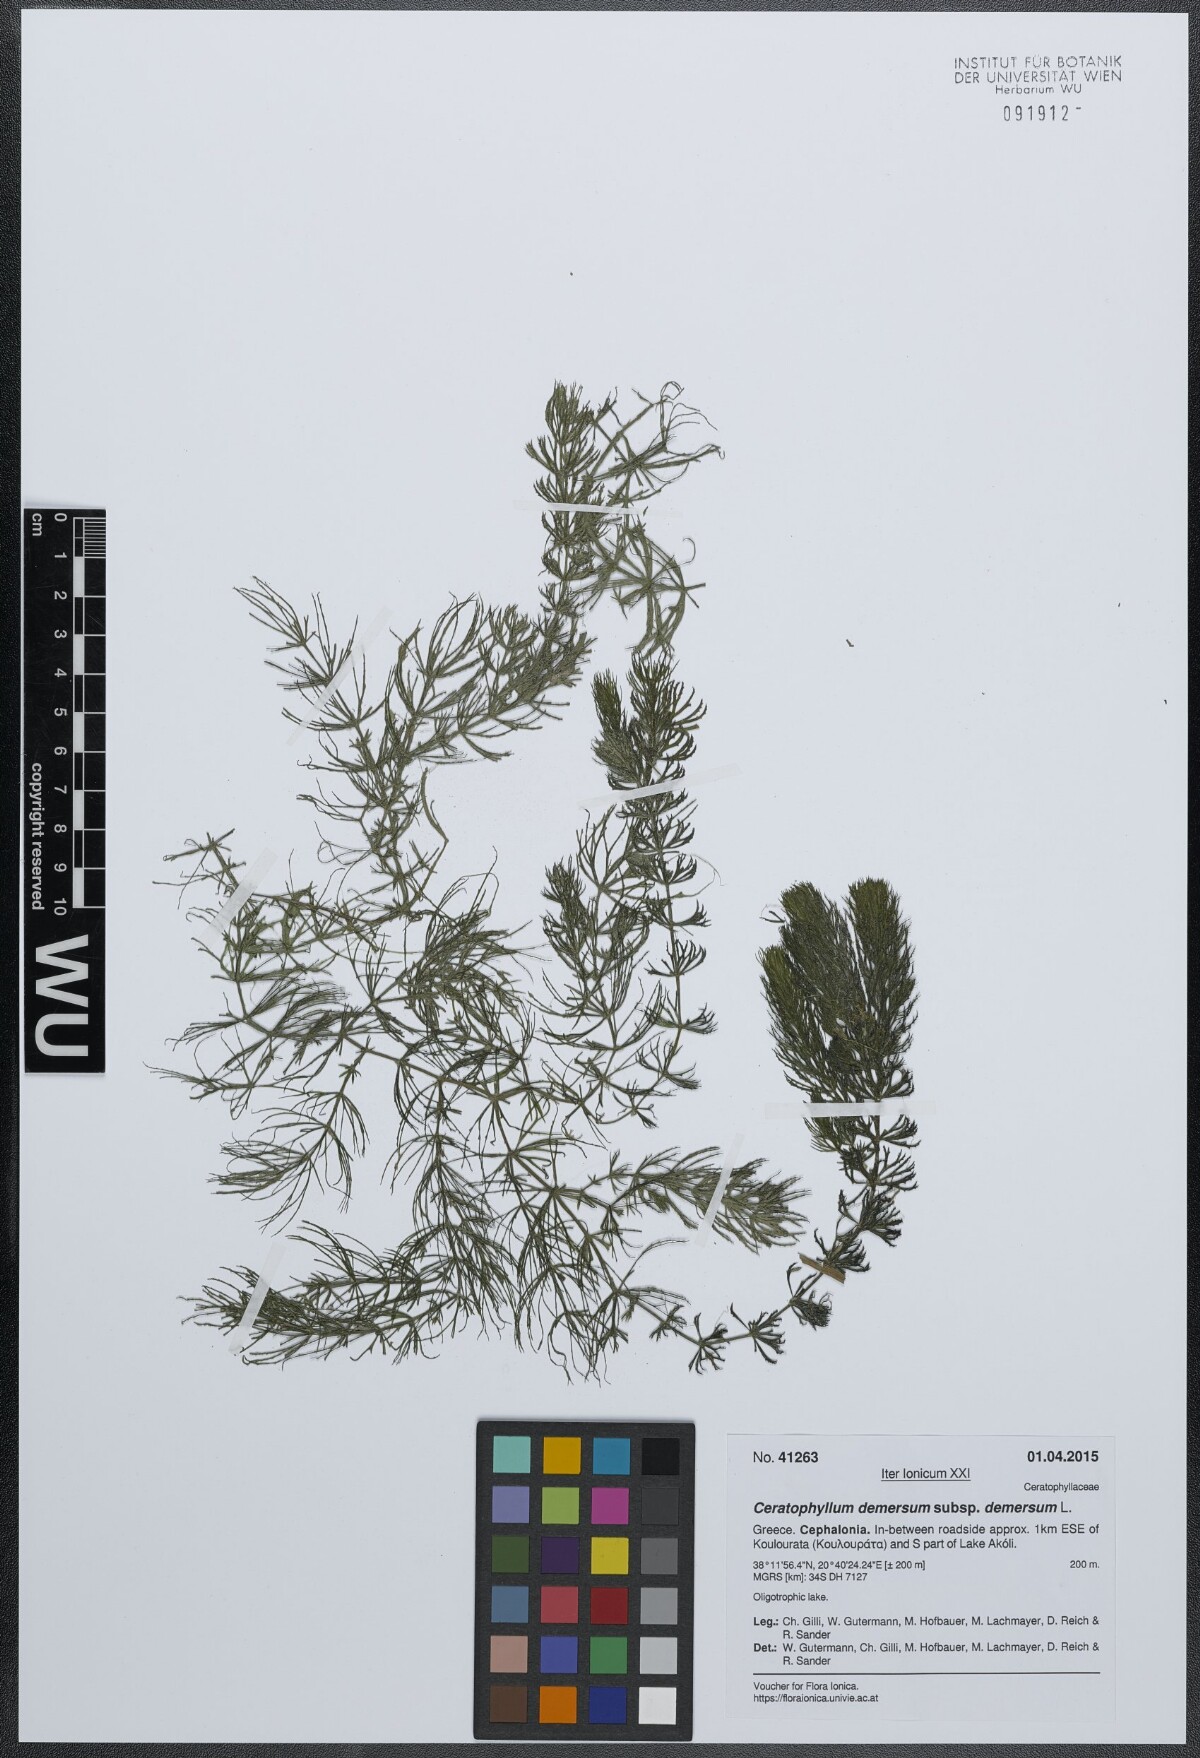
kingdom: Plantae
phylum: Tracheophyta
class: Magnoliopsida
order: Ceratophyllales
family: Ceratophyllaceae
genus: Ceratophyllum
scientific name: Ceratophyllum demersum
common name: Rigid hornwort
